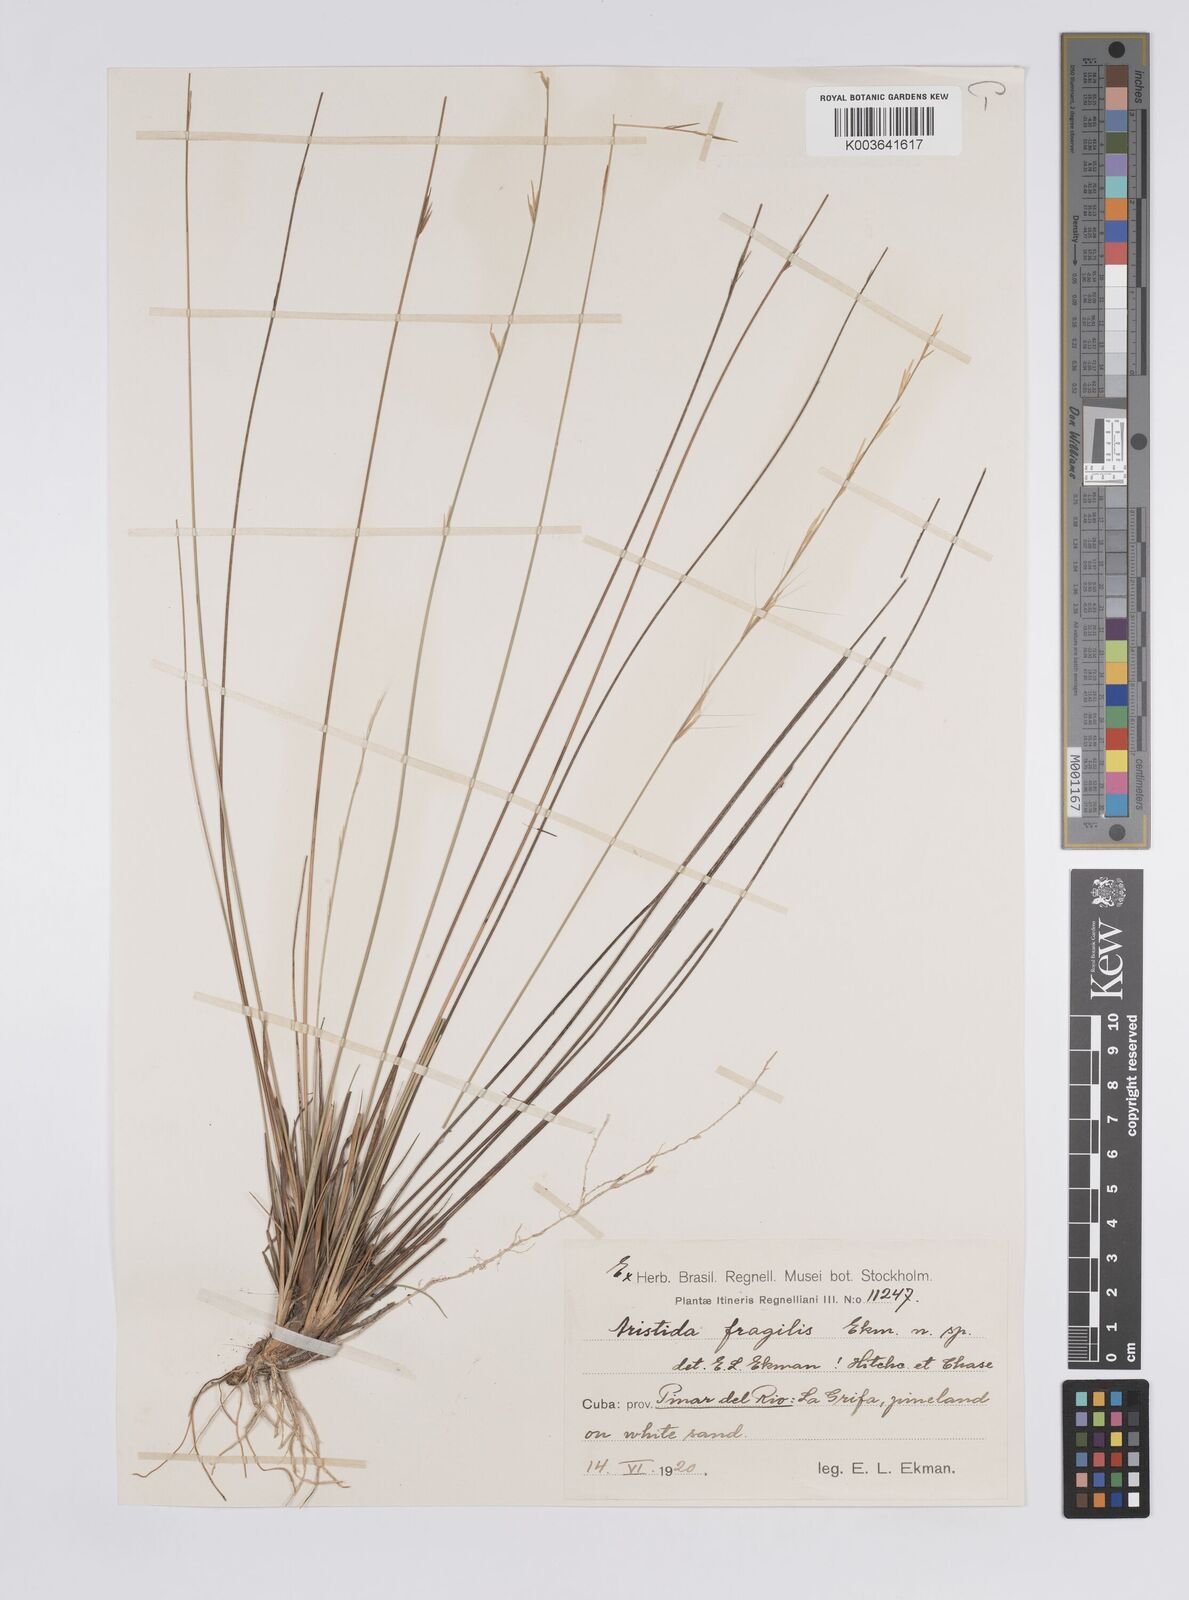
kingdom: Plantae
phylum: Tracheophyta
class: Liliopsida
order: Poales
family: Poaceae
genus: Aristida
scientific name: Aristida fragilis
